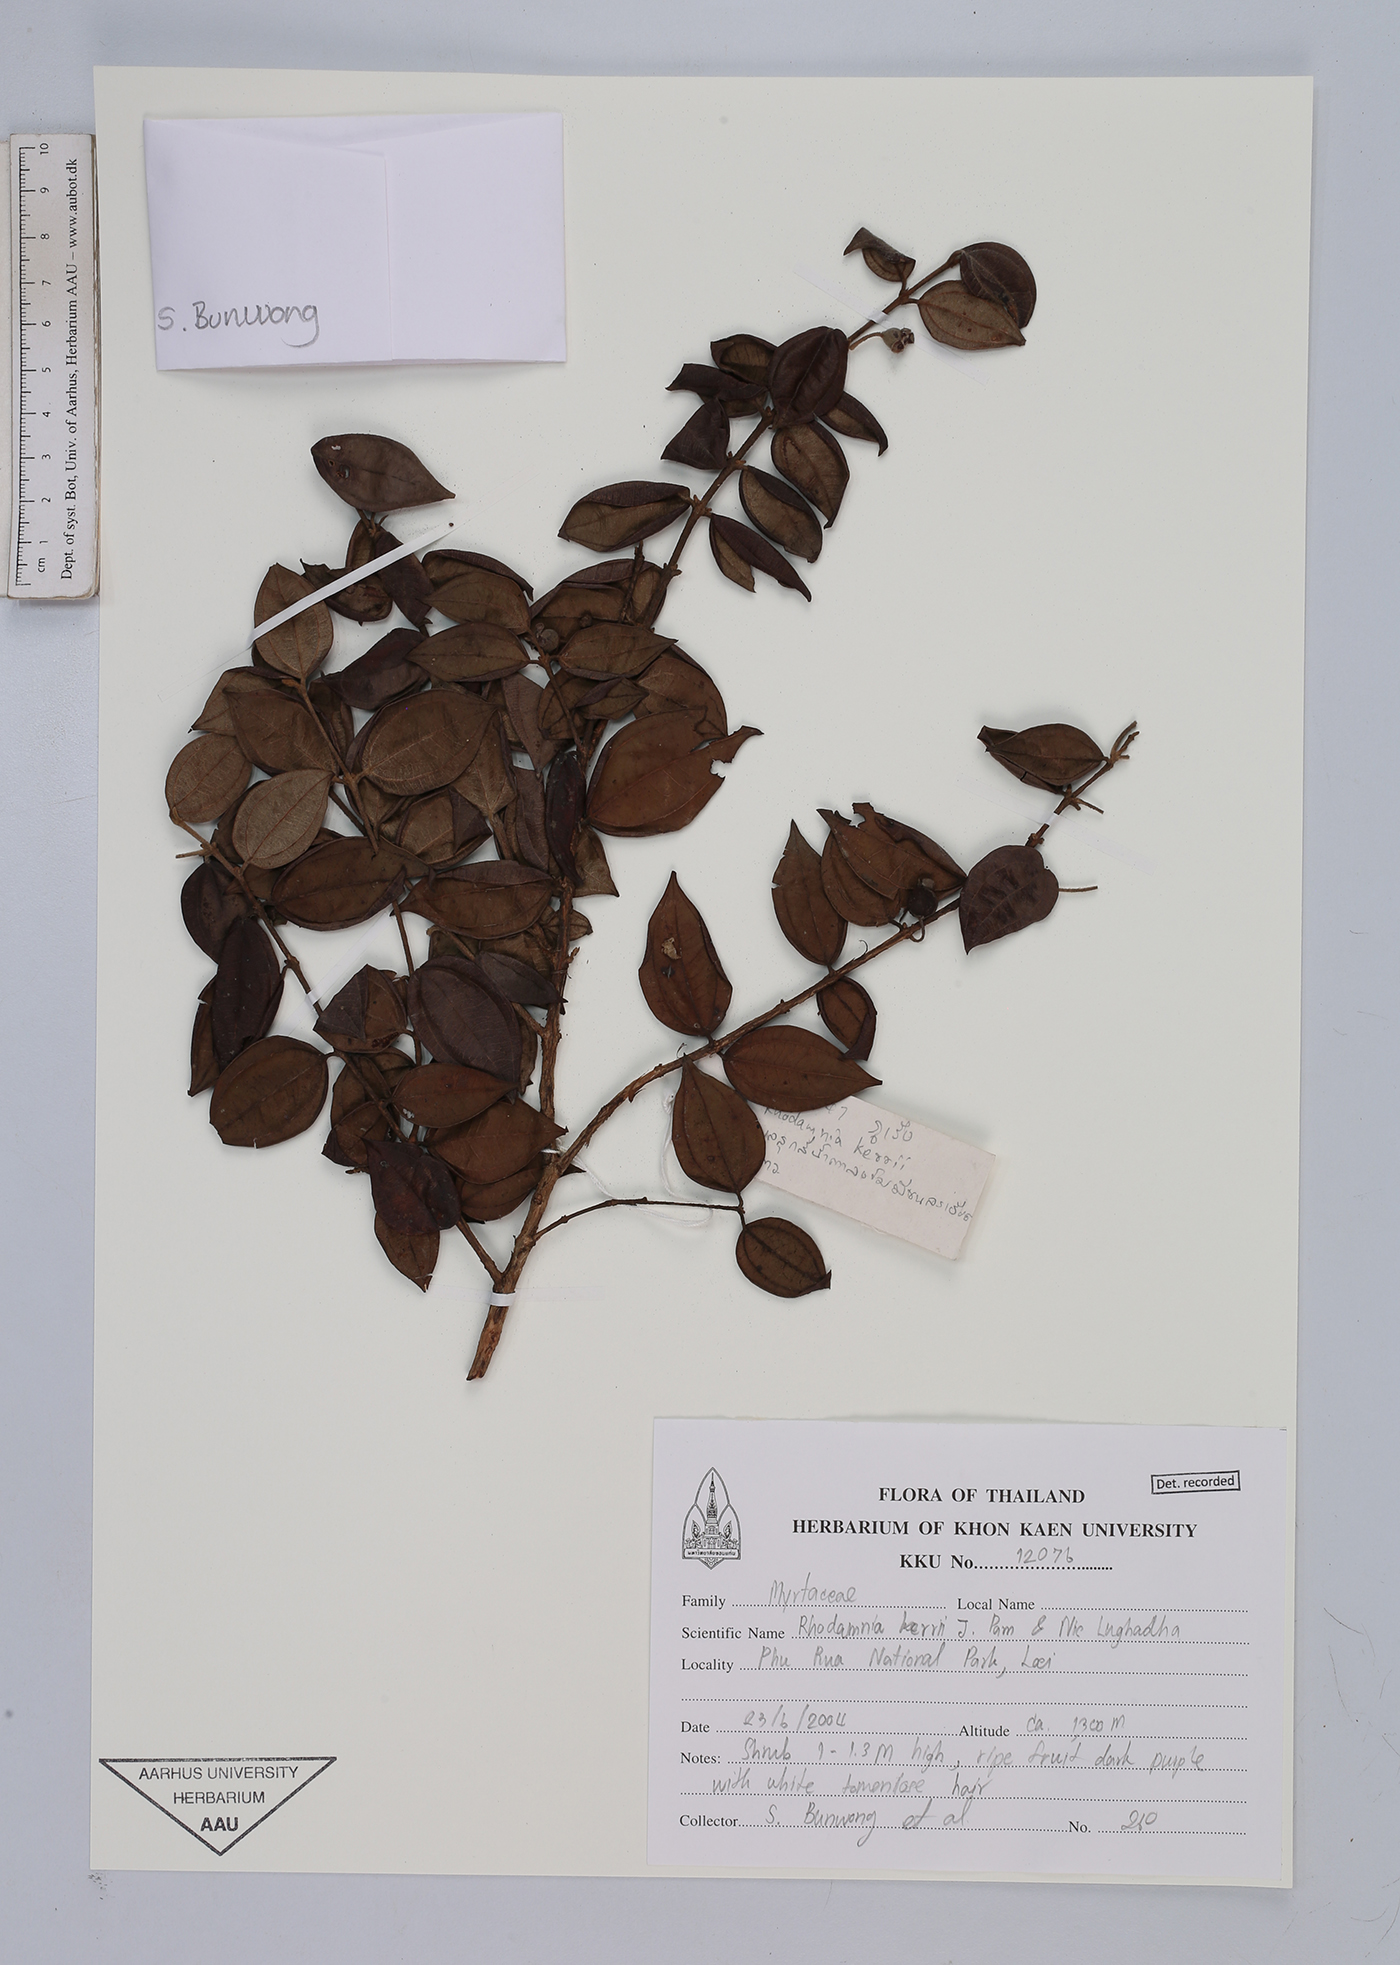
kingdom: Plantae
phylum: Tracheophyta
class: Magnoliopsida
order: Myrtales
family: Myrtaceae
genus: Rhodamnia
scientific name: Rhodamnia kerrii
